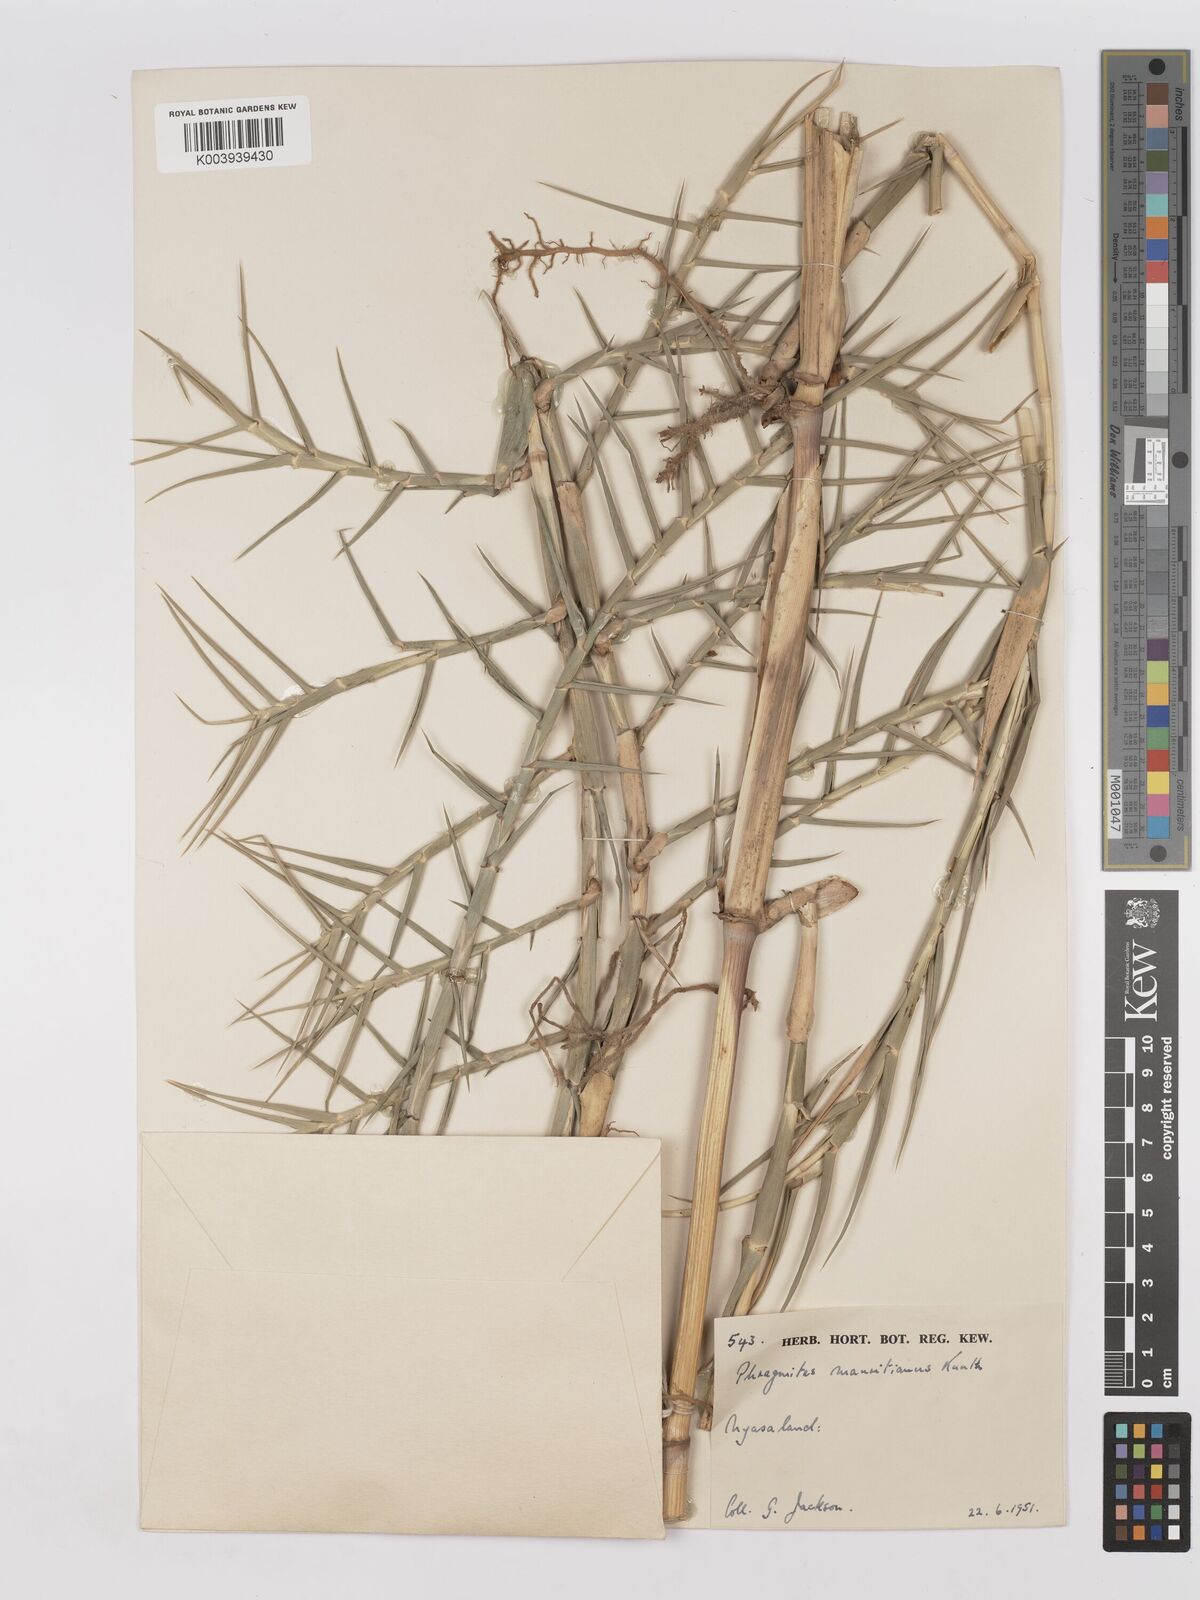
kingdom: Plantae
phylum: Tracheophyta
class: Liliopsida
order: Poales
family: Poaceae
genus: Phragmites
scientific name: Phragmites mauritianus
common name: Reed grass
